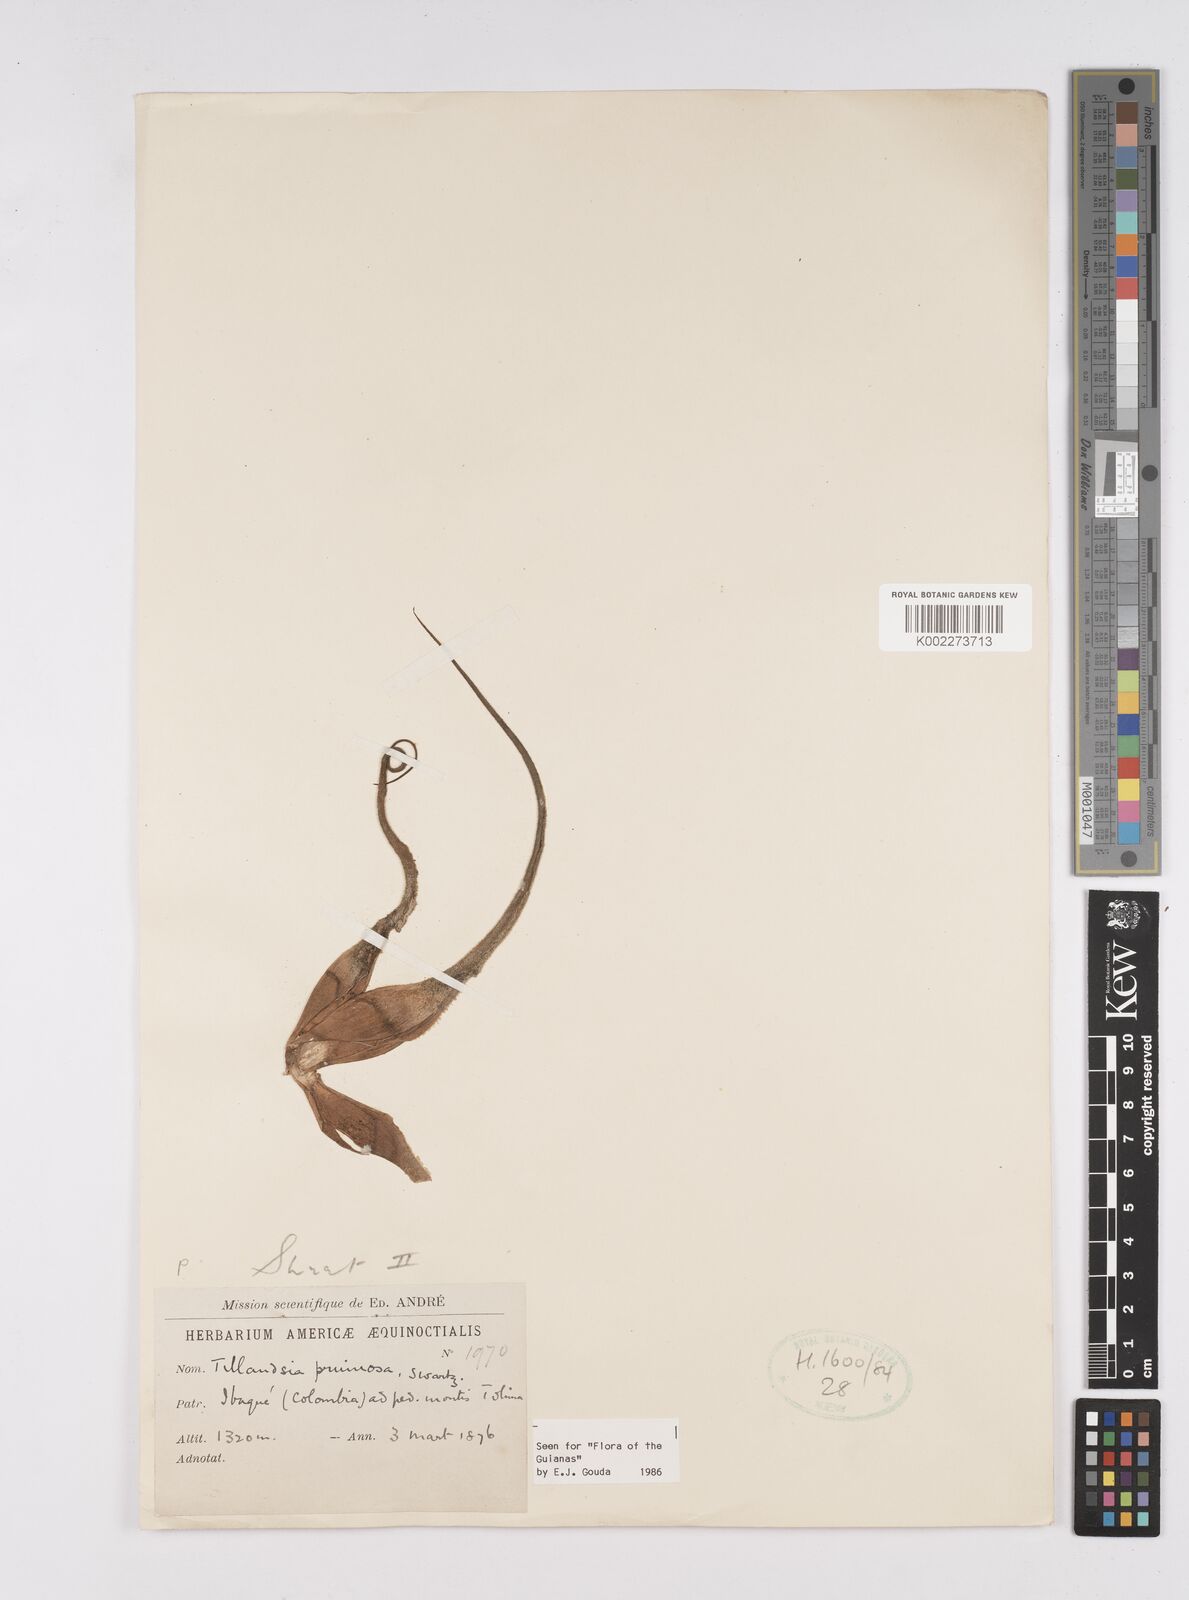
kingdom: Plantae
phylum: Tracheophyta
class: Liliopsida
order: Poales
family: Bromeliaceae
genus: Tillandsia
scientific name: Tillandsia pruinosa
